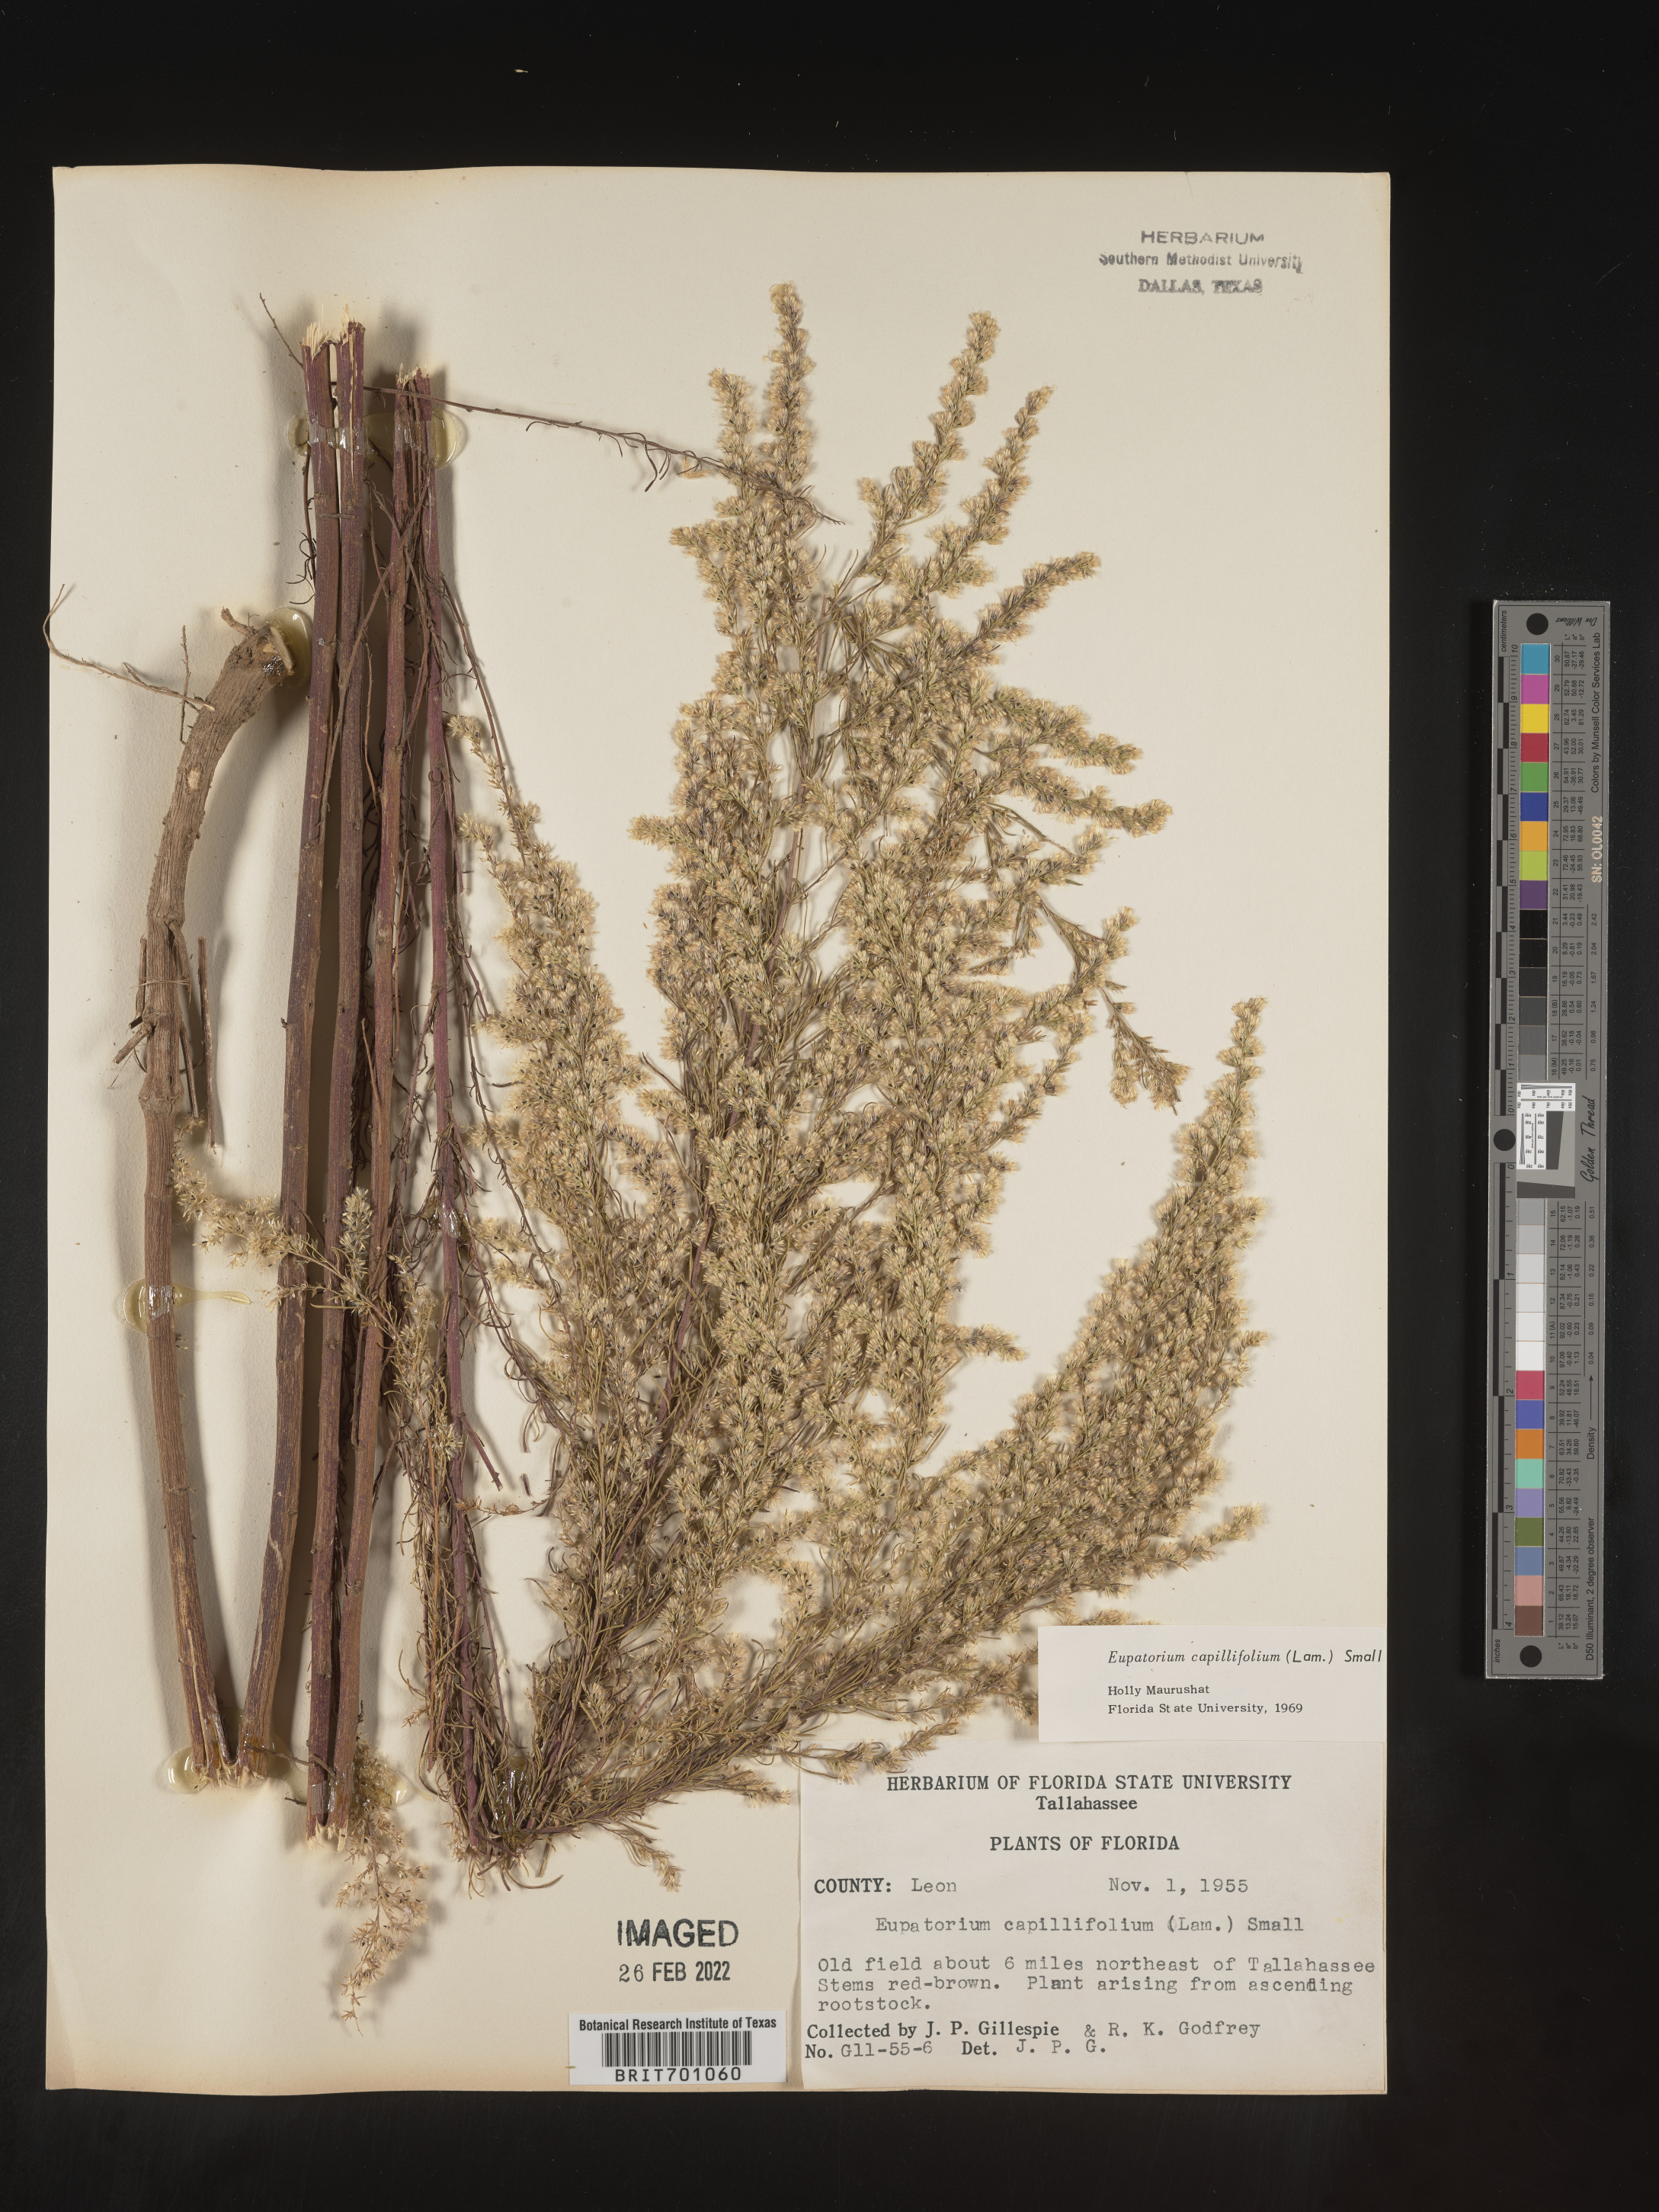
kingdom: Plantae
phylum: Tracheophyta
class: Magnoliopsida
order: Asterales
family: Asteraceae
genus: Eupatorium
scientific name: Eupatorium capillifolium
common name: Dog-fennel
